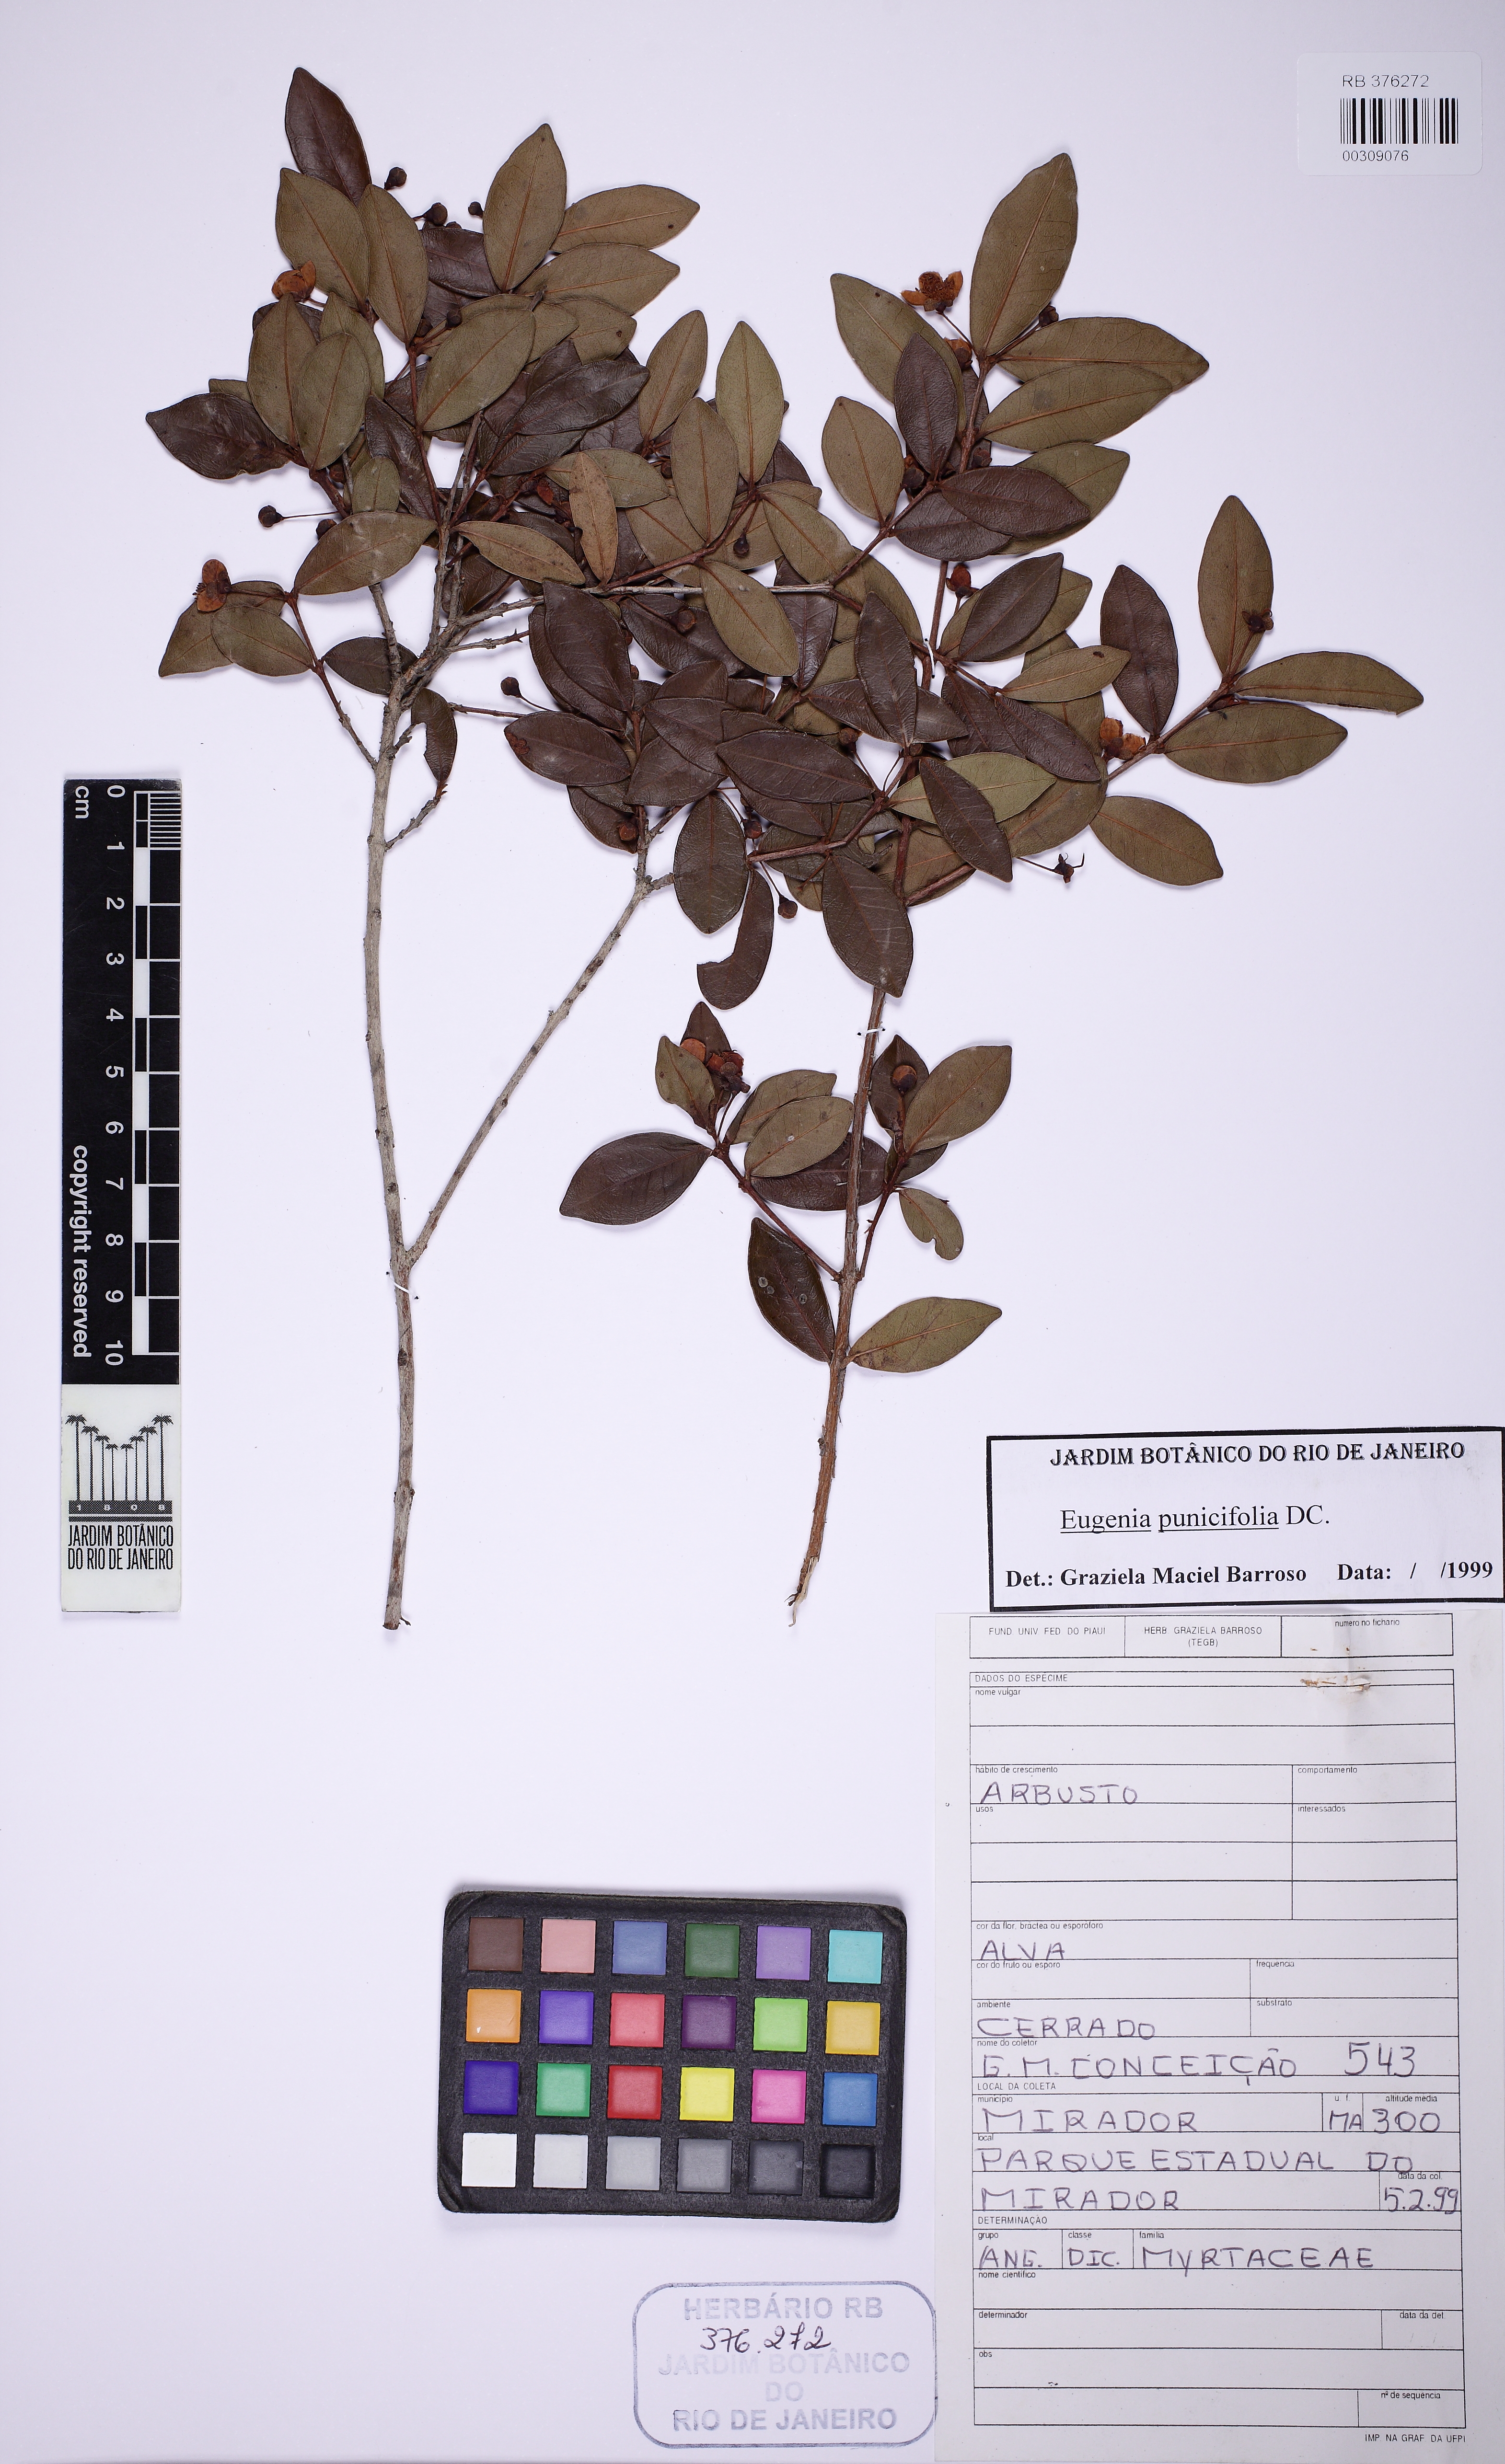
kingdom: Plantae
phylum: Tracheophyta
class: Magnoliopsida
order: Myrtales
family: Myrtaceae
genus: Eugenia
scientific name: Eugenia punicifolia
